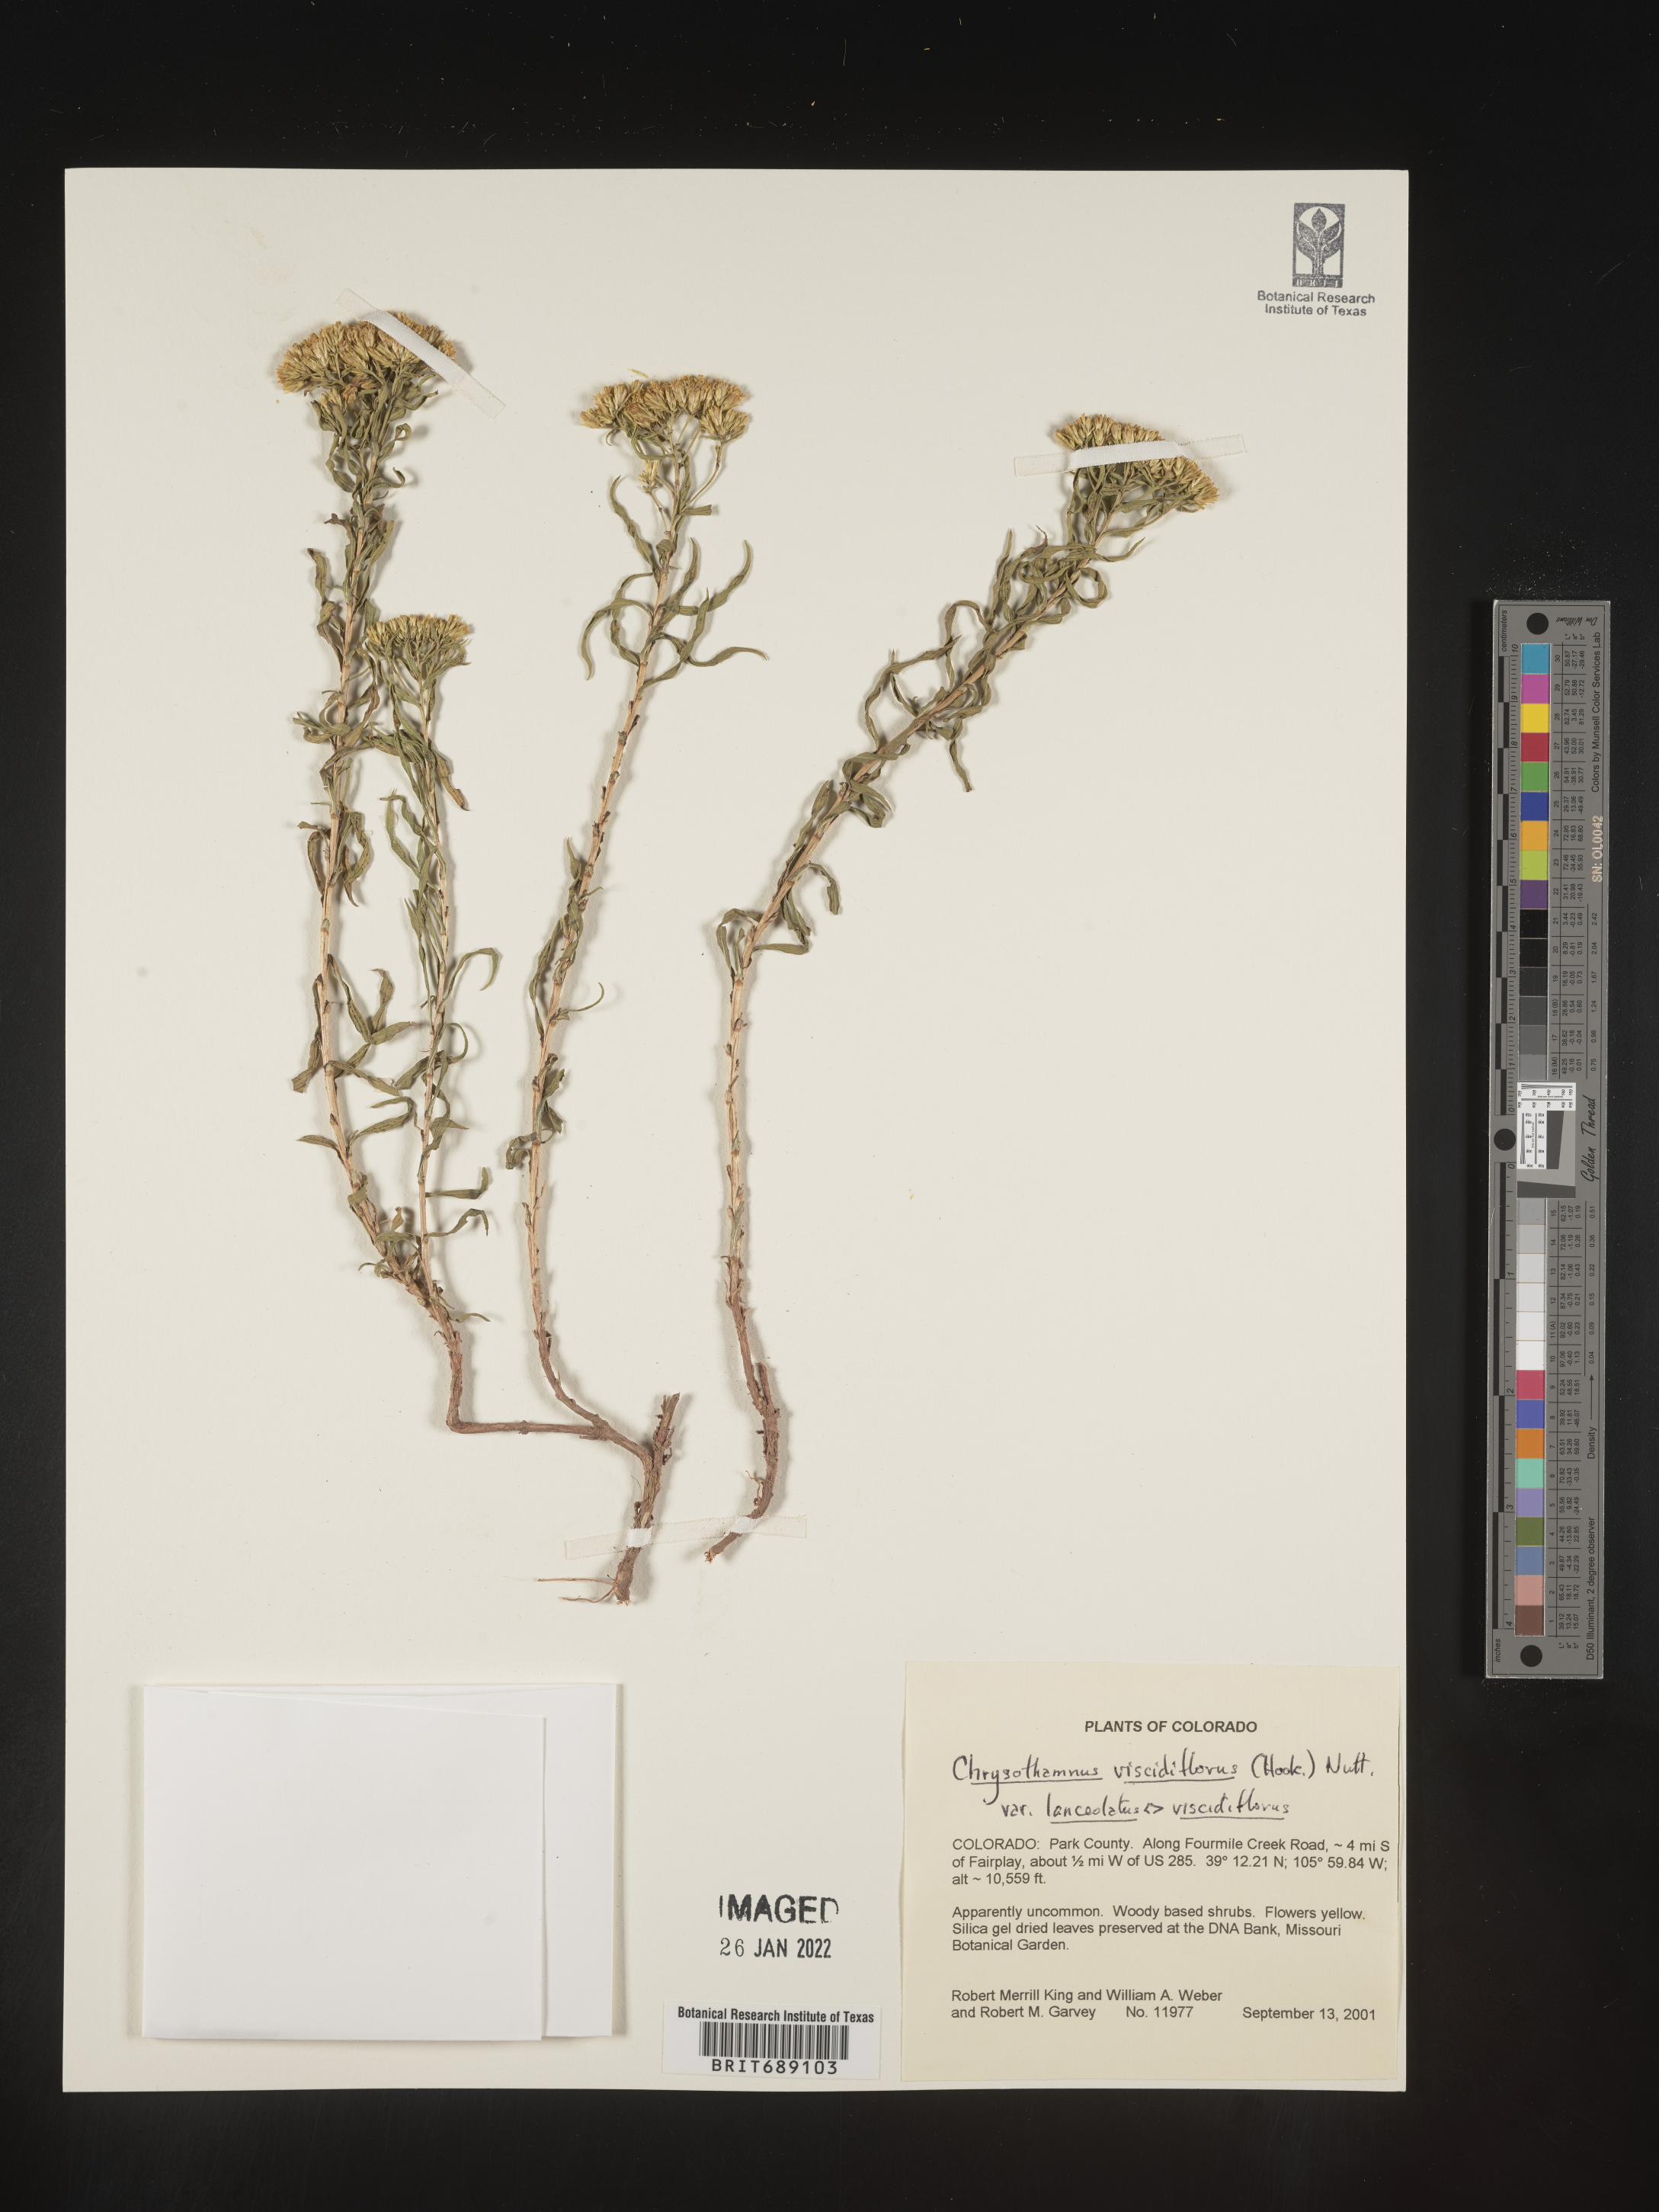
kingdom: Plantae
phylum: Tracheophyta
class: Magnoliopsida
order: Asterales
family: Asteraceae
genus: Chrysothamnus
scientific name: Chrysothamnus viscidiflorus
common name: Yellow rabbitbrush
